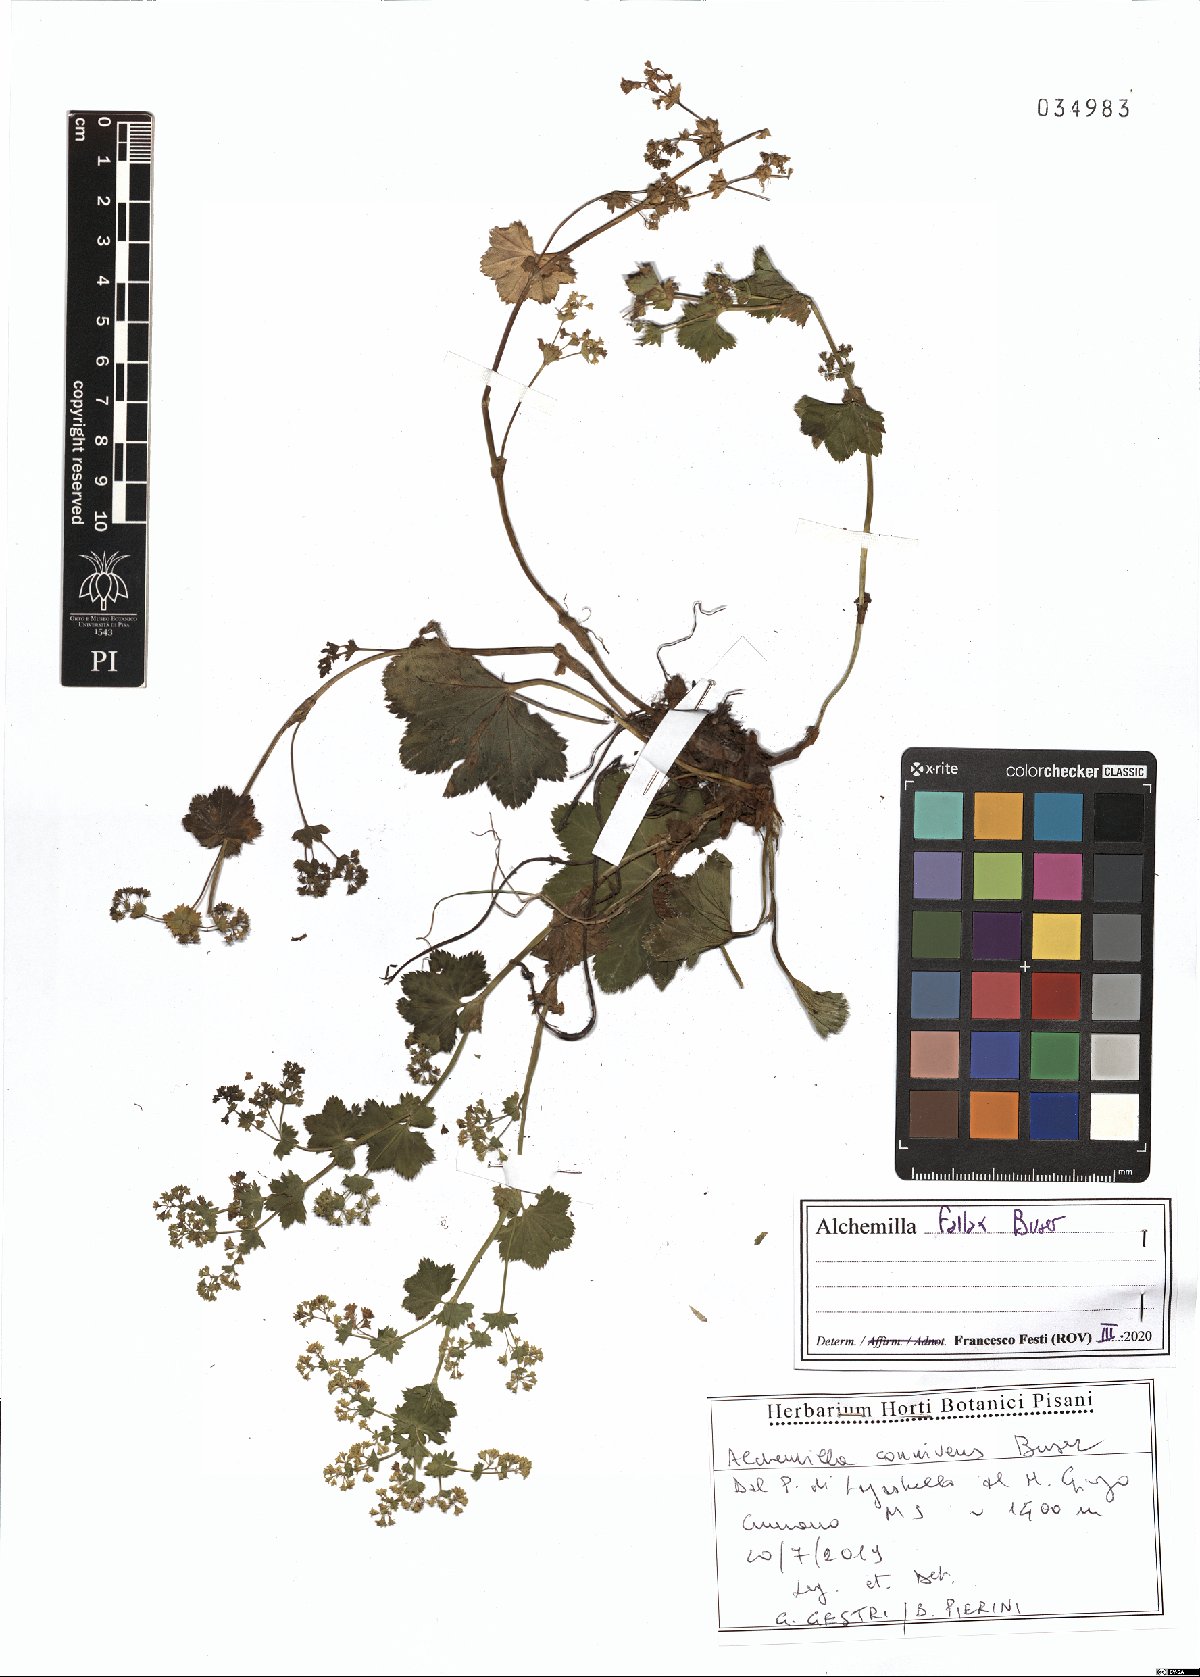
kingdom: Plantae
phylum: Tracheophyta
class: Magnoliopsida
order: Rosales
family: Rosaceae
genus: Alchemilla
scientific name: Alchemilla fallax
